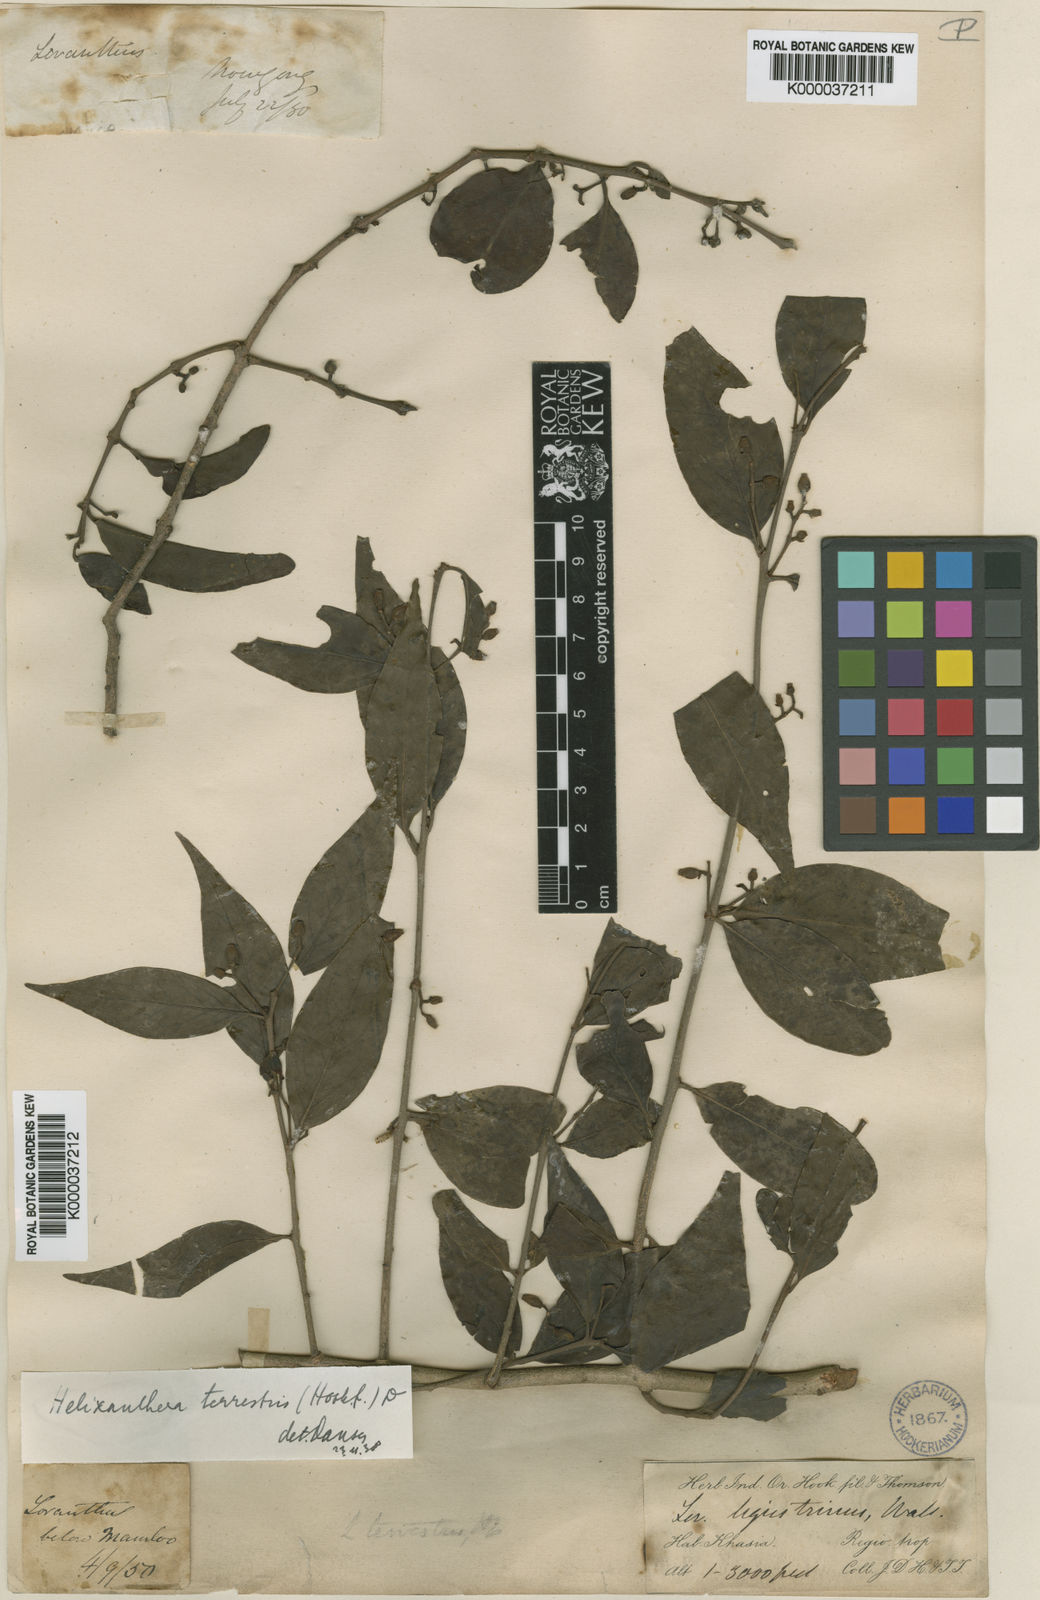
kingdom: Plantae
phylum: Tracheophyta
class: Magnoliopsida
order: Santalales
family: Loranthaceae
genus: Helixanthera
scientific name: Helixanthera ligustrina
